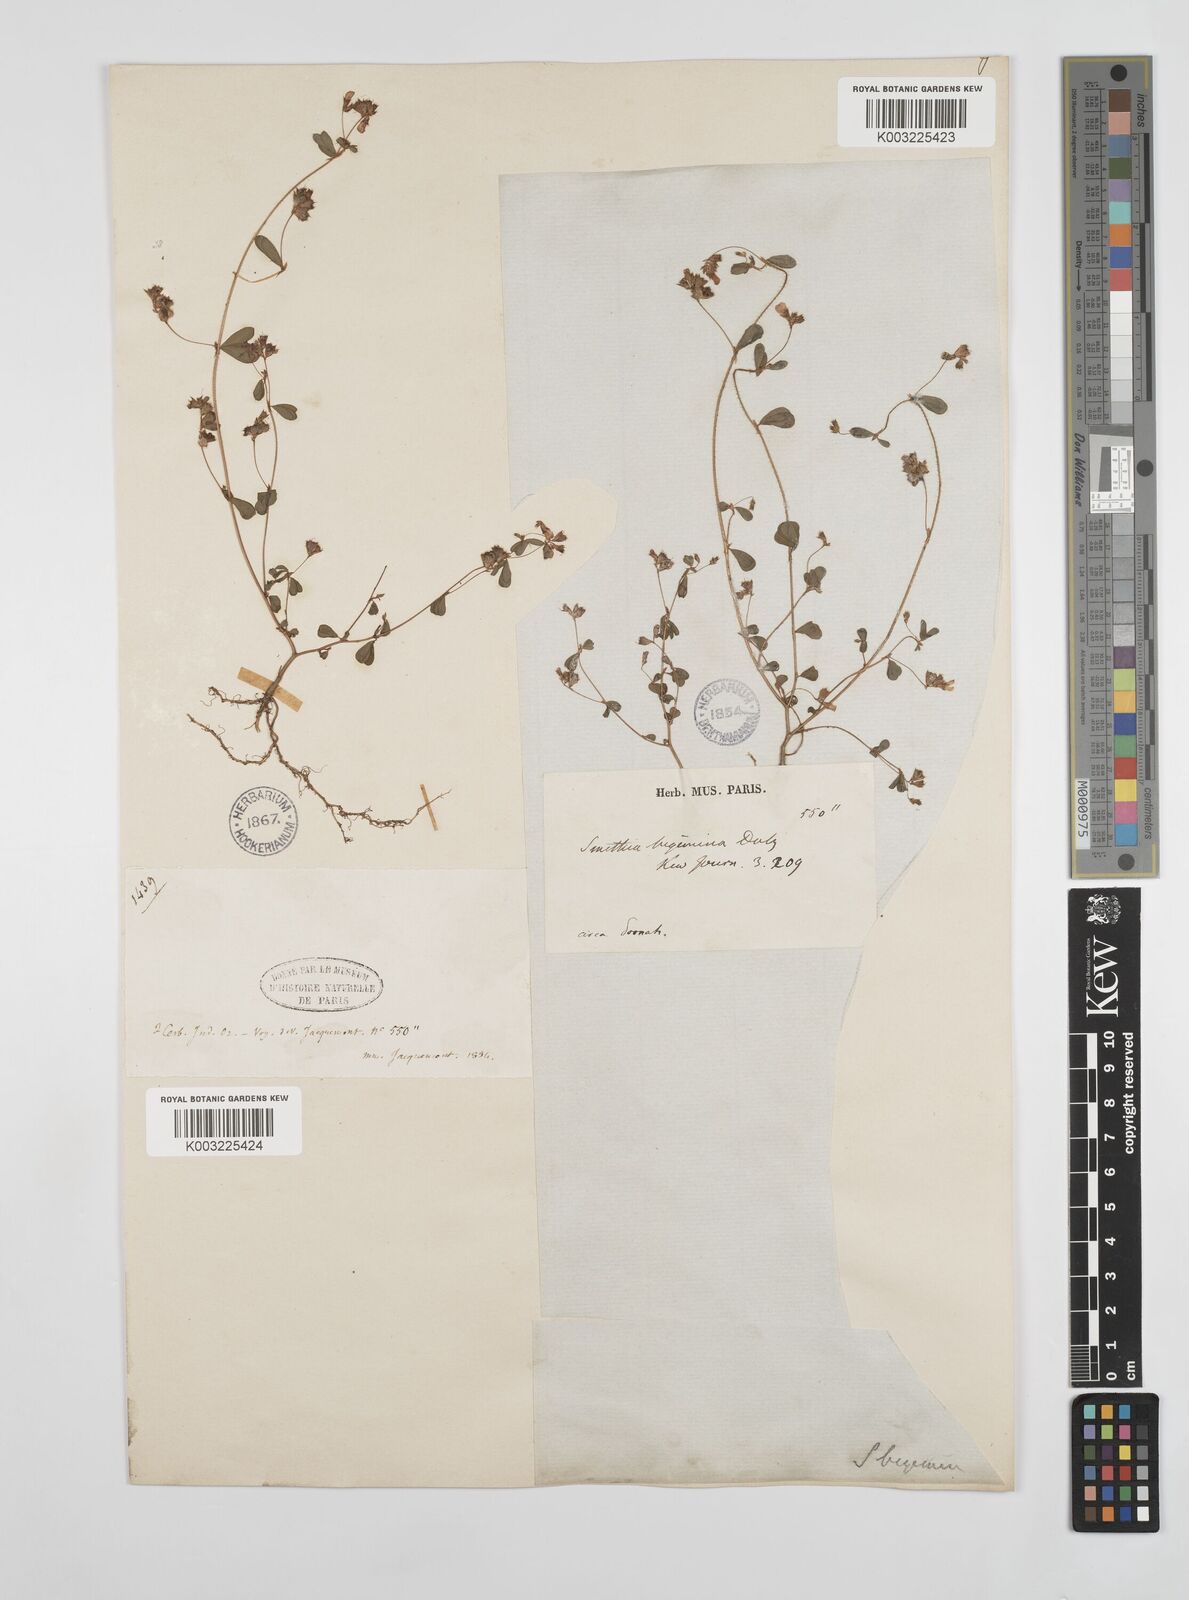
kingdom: Plantae
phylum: Tracheophyta
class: Magnoliopsida
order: Fabales
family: Fabaceae
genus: Smithia
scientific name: Smithia bigemina
